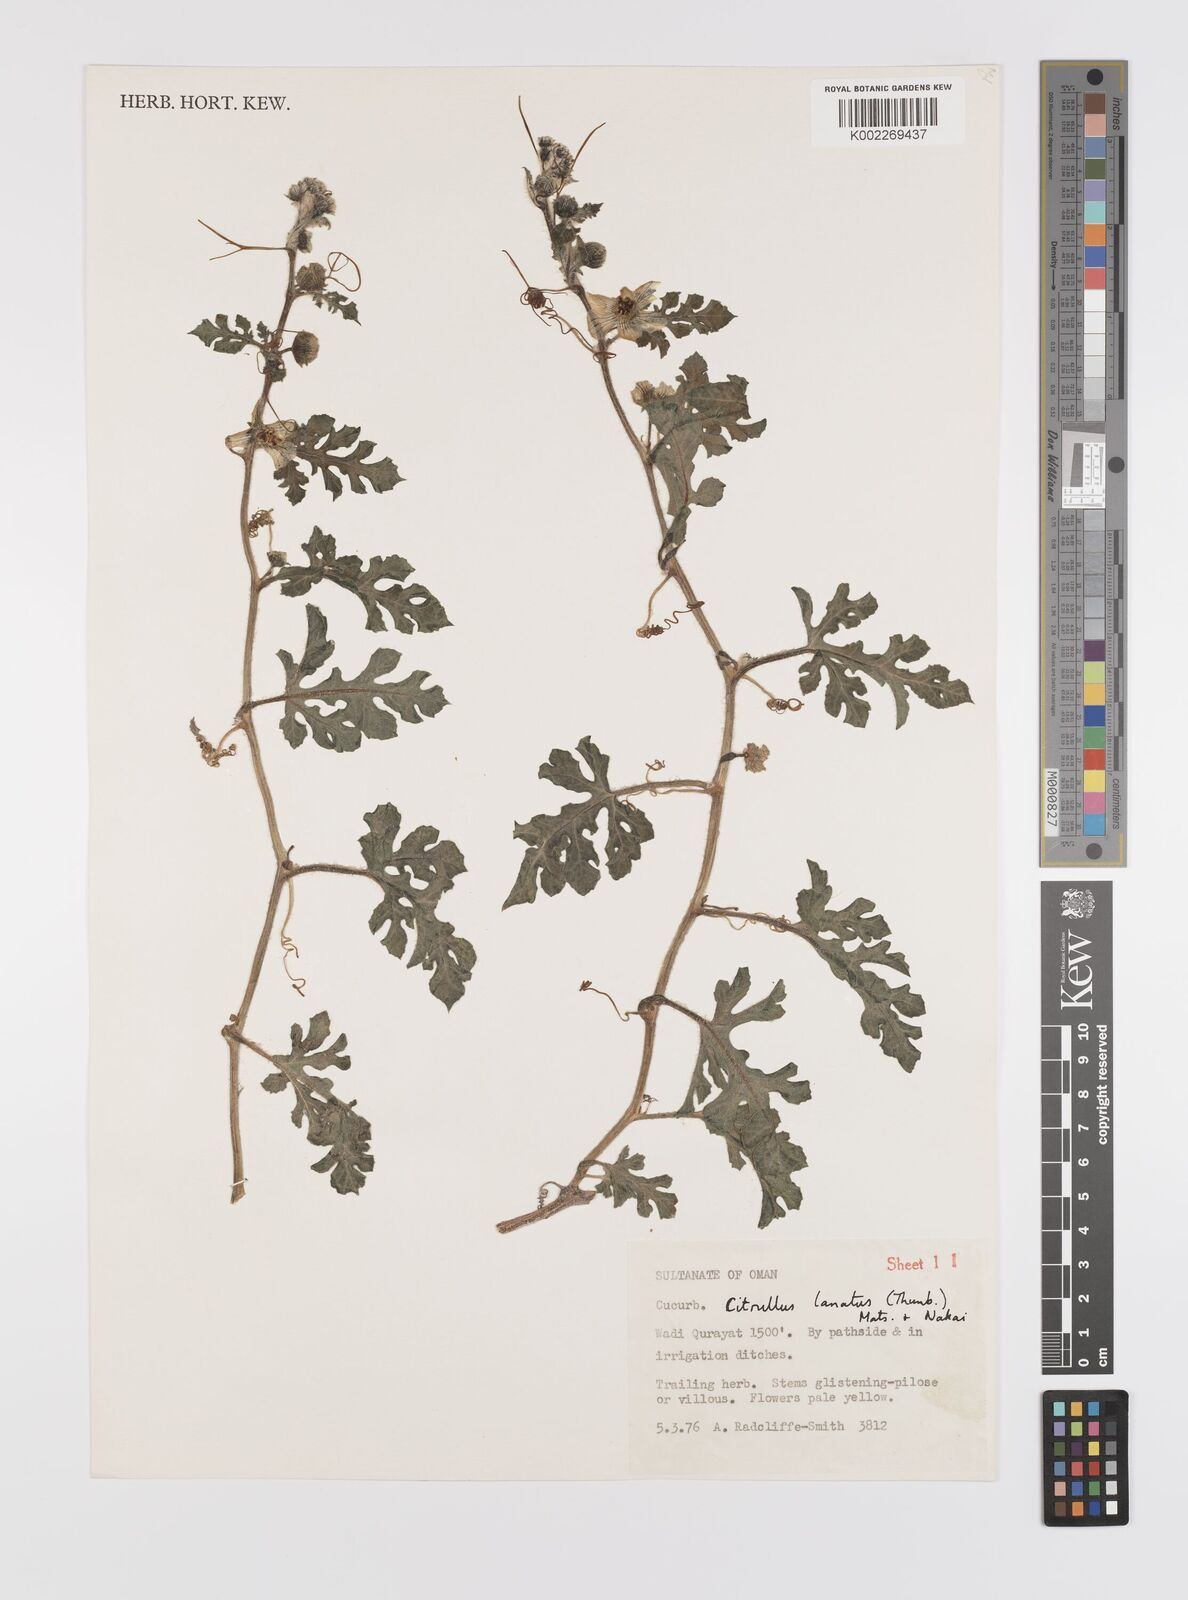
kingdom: Plantae
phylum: Tracheophyta
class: Magnoliopsida
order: Cucurbitales
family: Cucurbitaceae
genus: Citrullus
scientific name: Citrullus lanatus
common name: Watermelon
